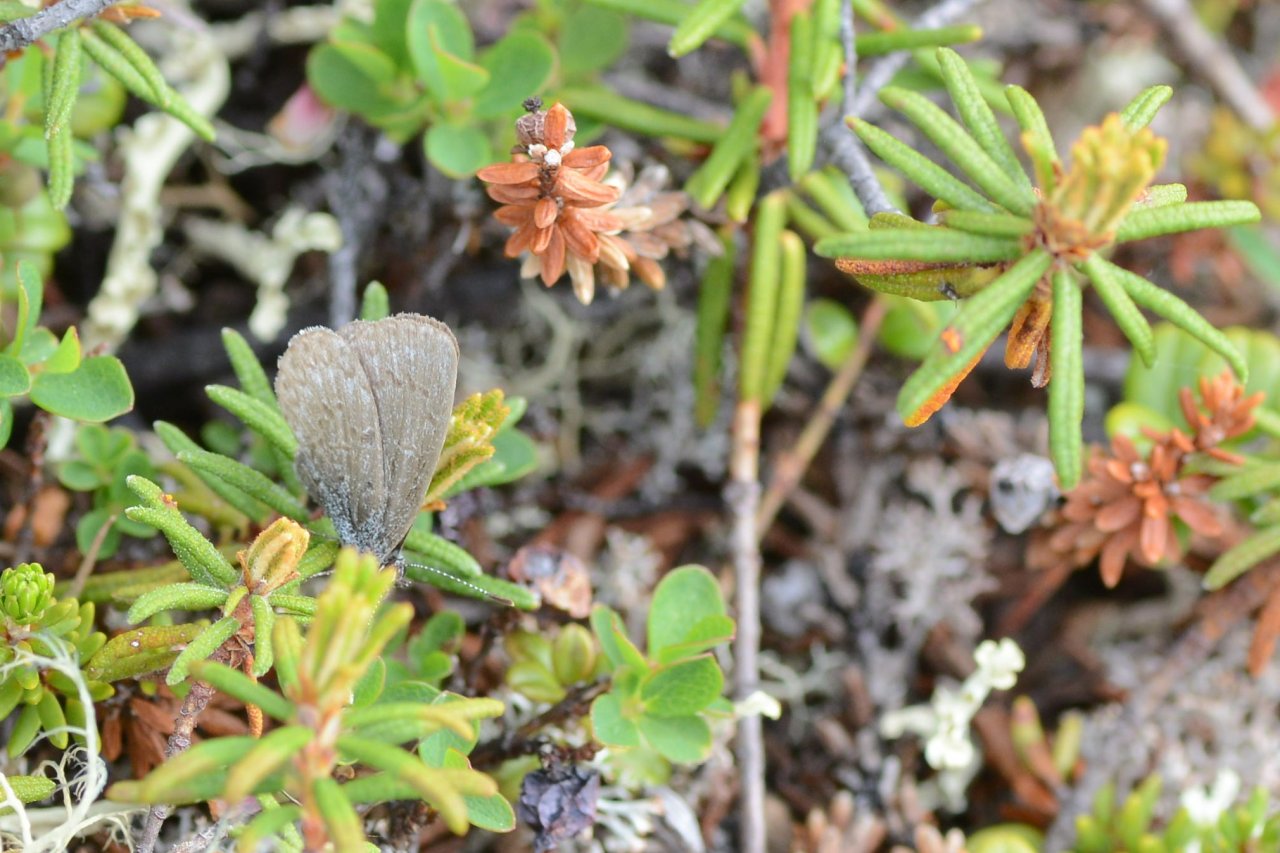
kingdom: Animalia
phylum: Arthropoda
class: Insecta
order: Lepidoptera
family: Lycaenidae
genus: Celastrina
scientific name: Celastrina lucia
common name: Northern Spring Azure
